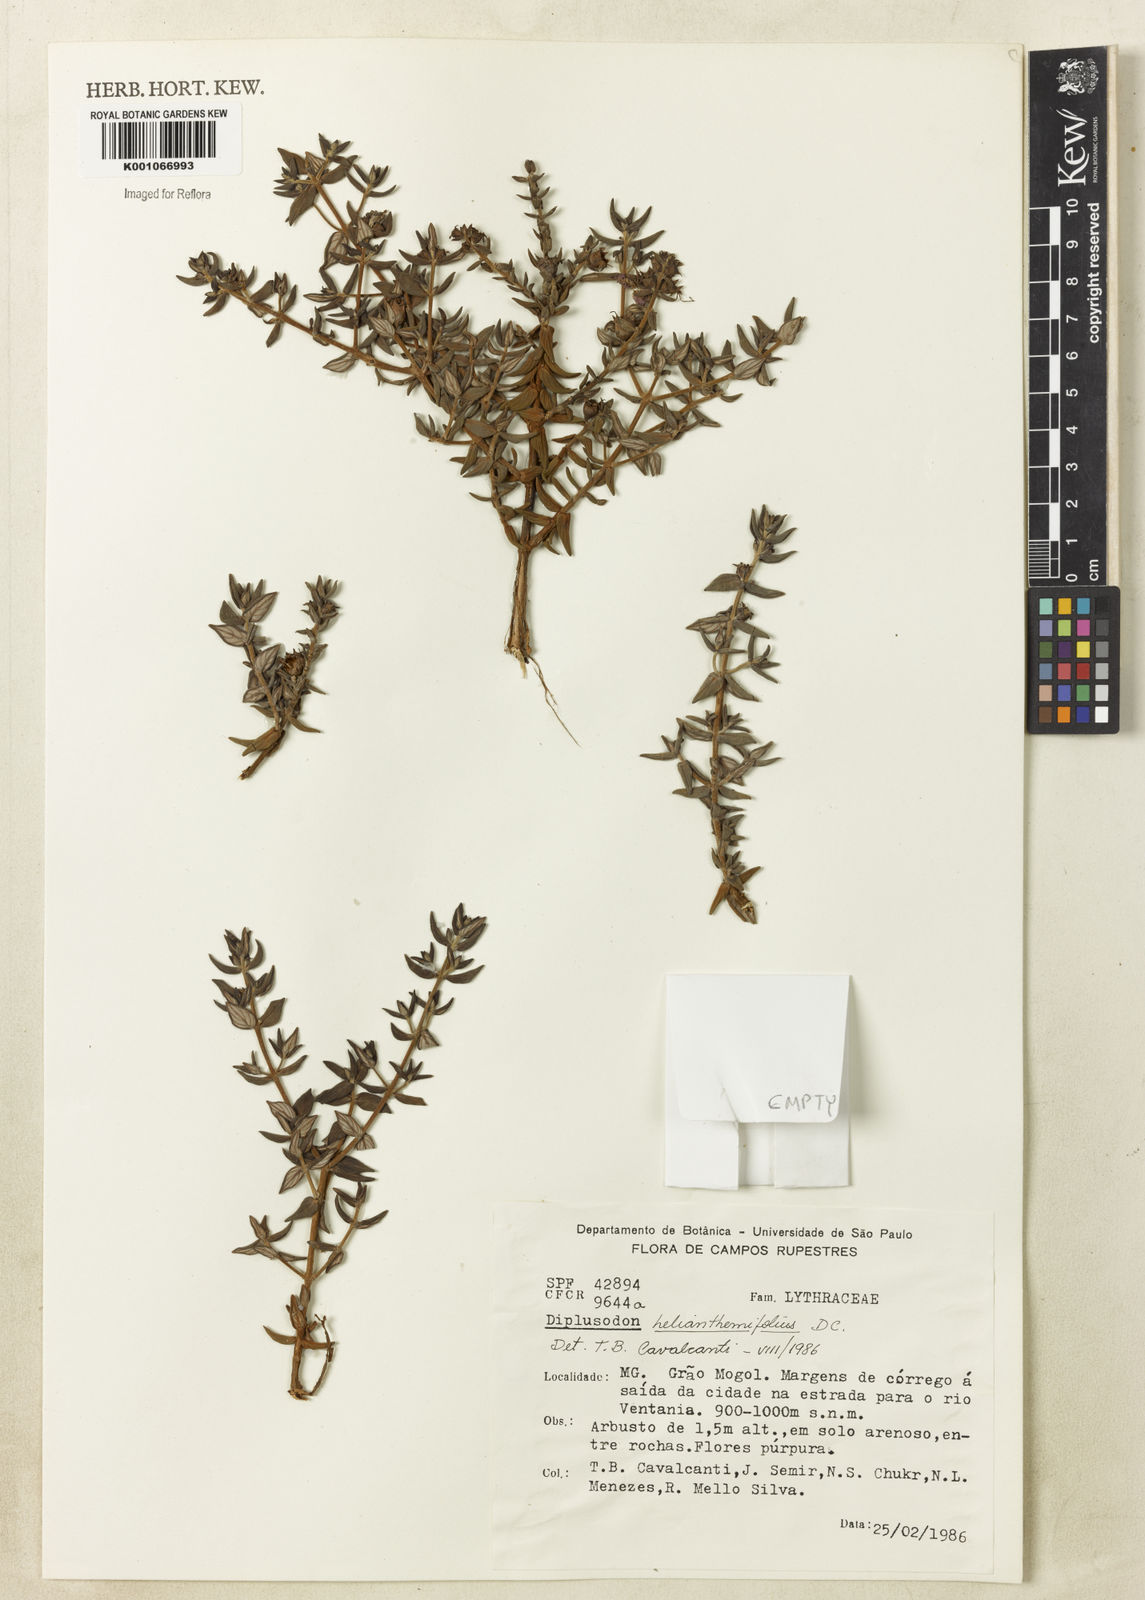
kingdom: Plantae
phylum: Tracheophyta
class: Magnoliopsida
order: Myrtales
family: Lythraceae
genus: Diplusodon
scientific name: Diplusodon helianthemifolius
